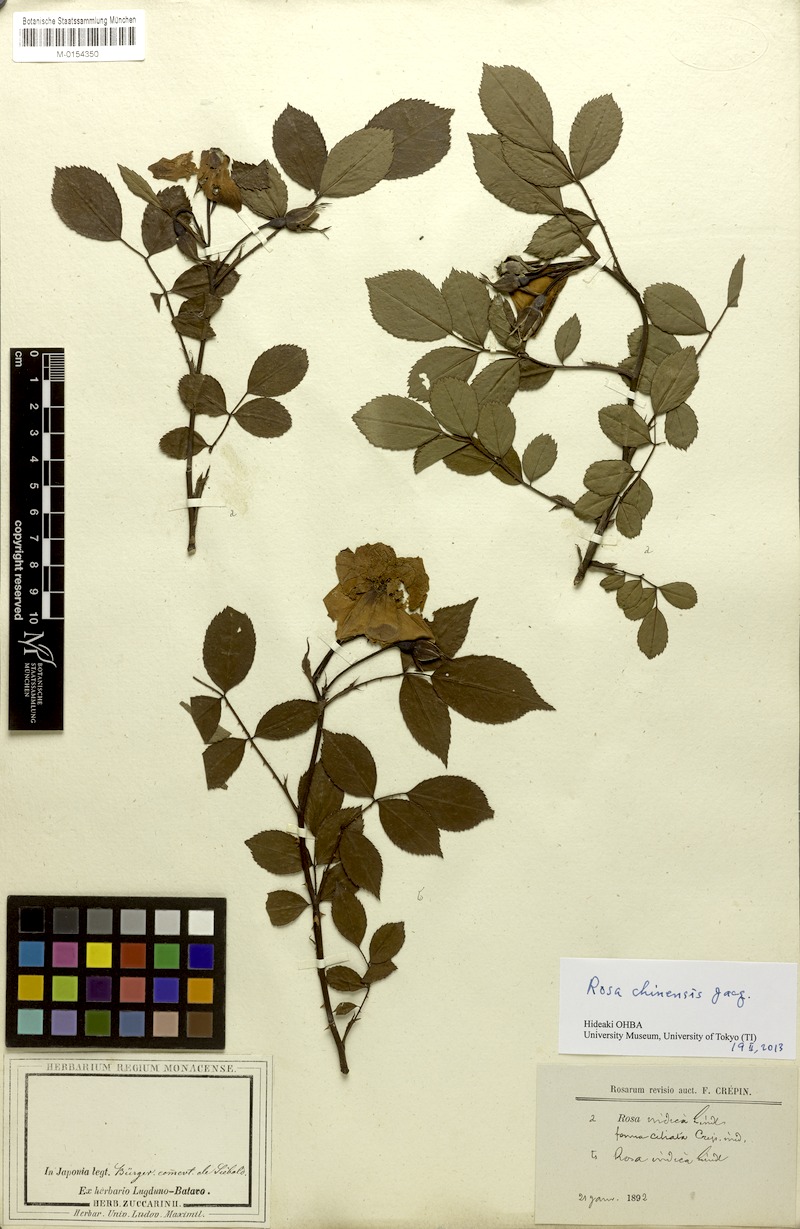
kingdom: Plantae
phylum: Tracheophyta
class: Magnoliopsida
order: Rosales
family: Rosaceae
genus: Rosa
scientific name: Rosa chinensis
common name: China rose
